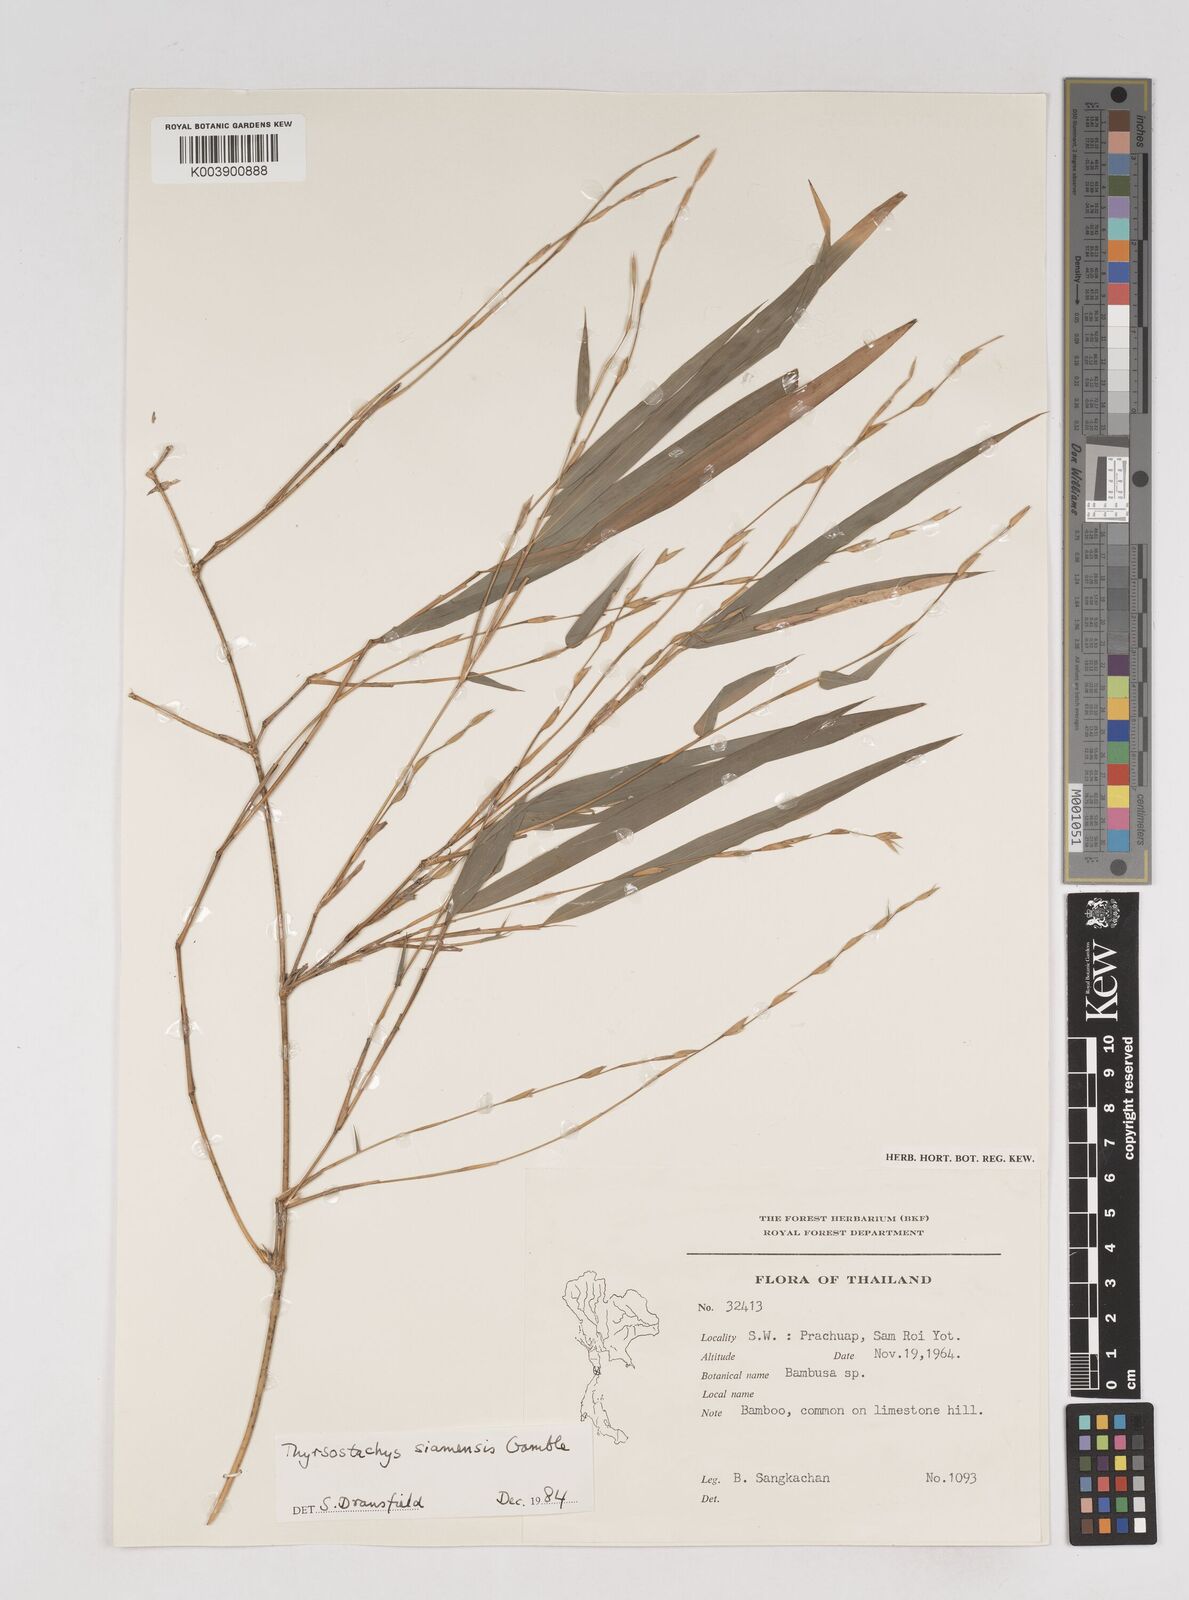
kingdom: Plantae
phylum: Tracheophyta
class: Liliopsida
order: Poales
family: Poaceae
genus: Thyrsostachys
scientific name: Thyrsostachys siamensis
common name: Thailand bamboo
